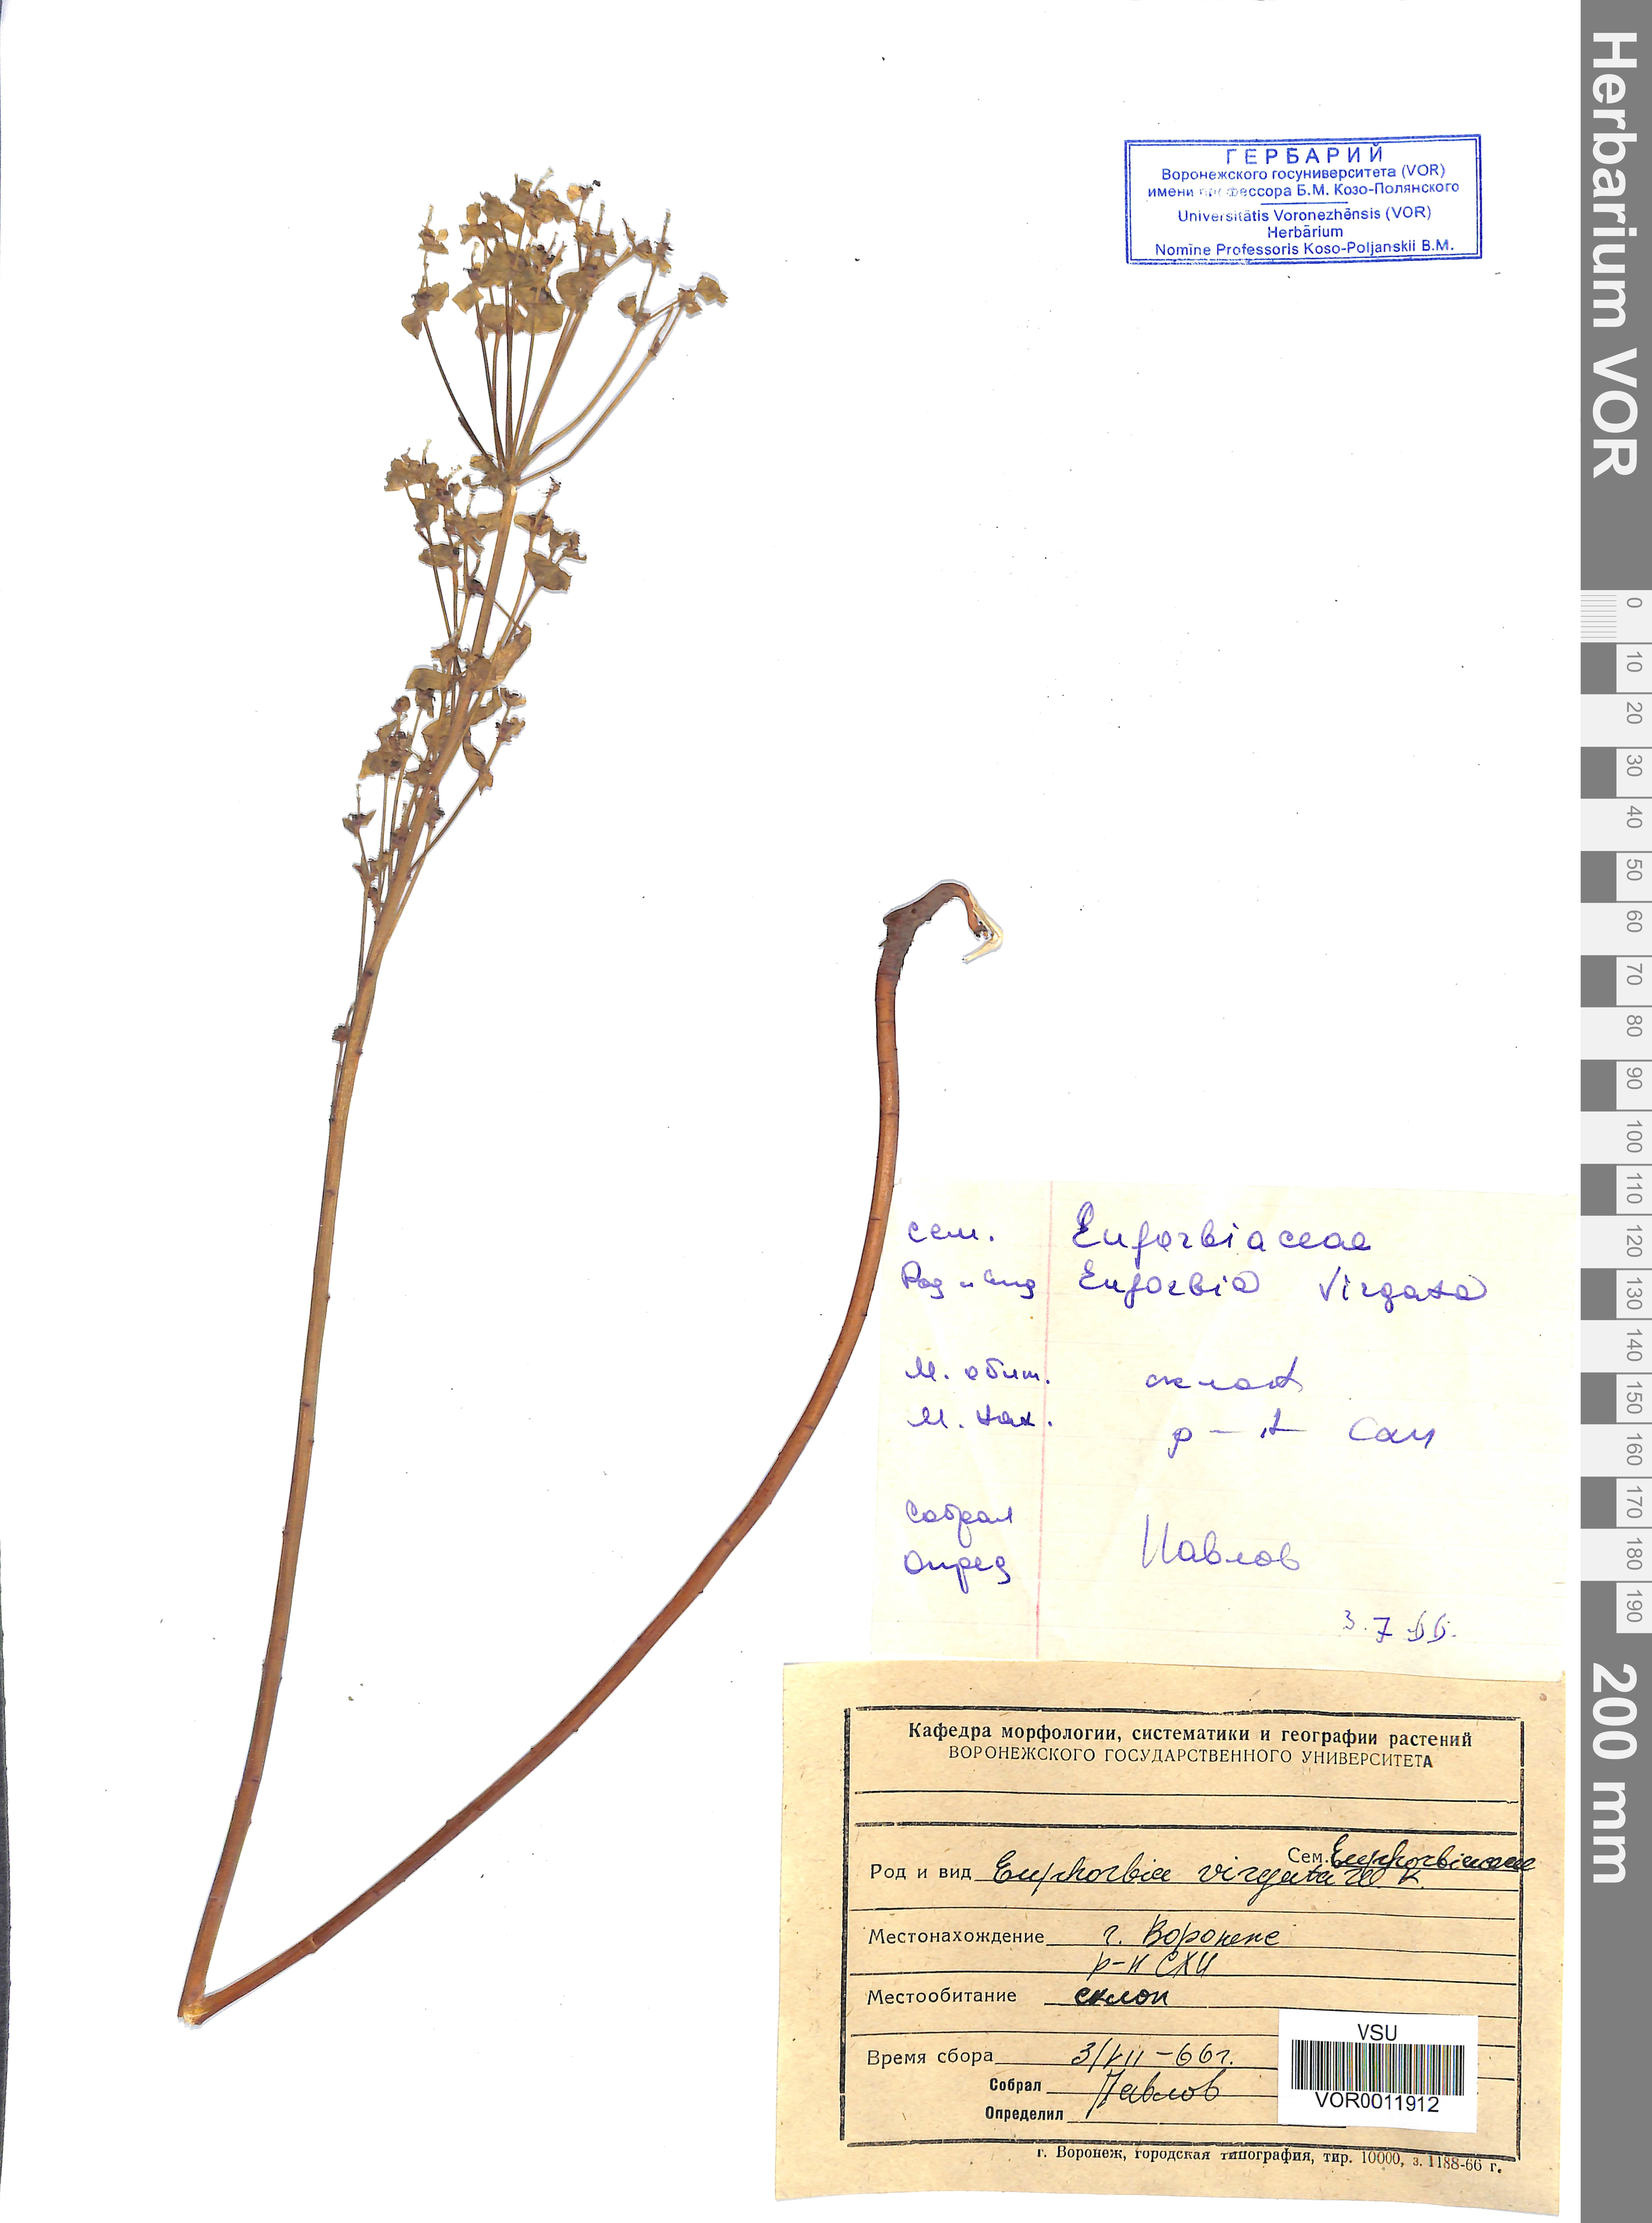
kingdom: Plantae
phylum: Tracheophyta
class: Magnoliopsida
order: Malpighiales
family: Euphorbiaceae
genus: Euphorbia
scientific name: Euphorbia virgata
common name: Leafy spurge
